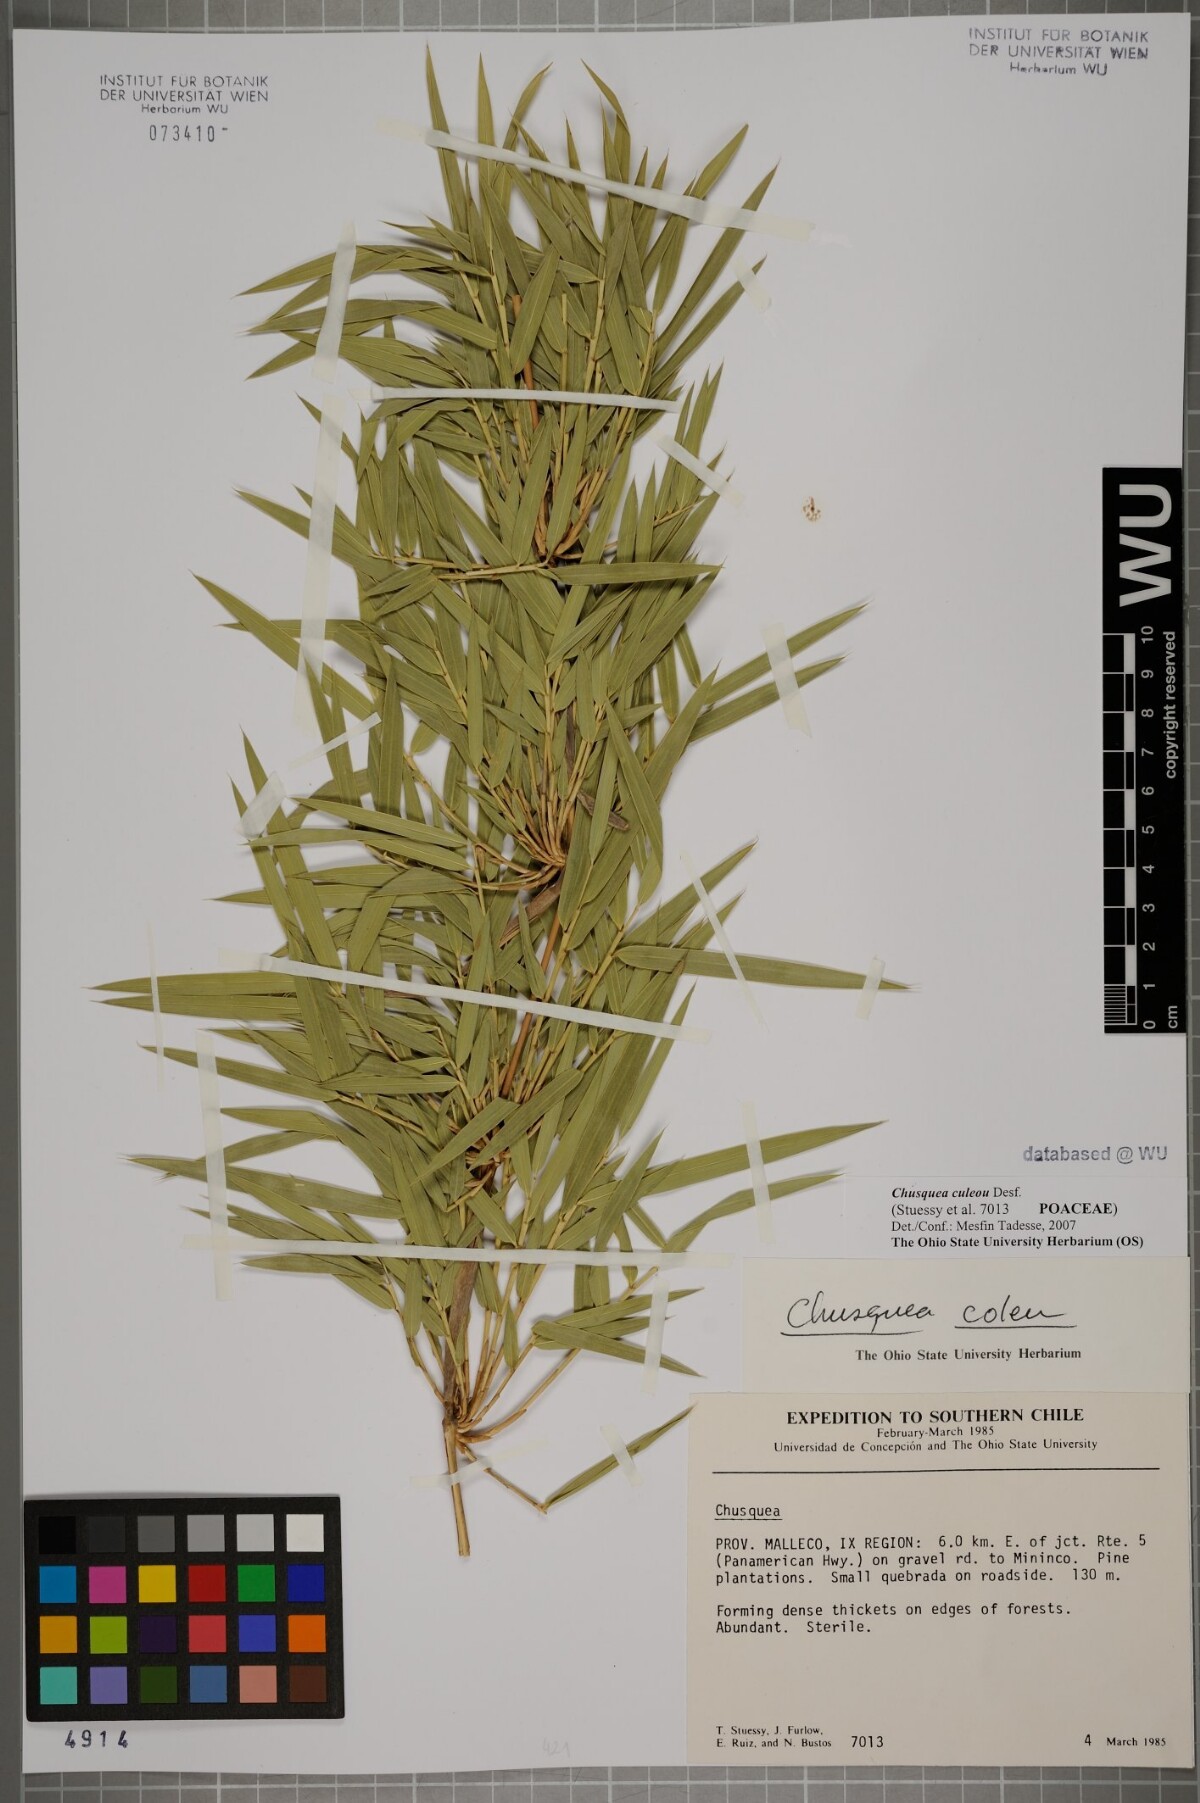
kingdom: Plantae
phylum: Tracheophyta
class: Liliopsida
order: Poales
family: Poaceae
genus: Chusquea
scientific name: Chusquea culeou
